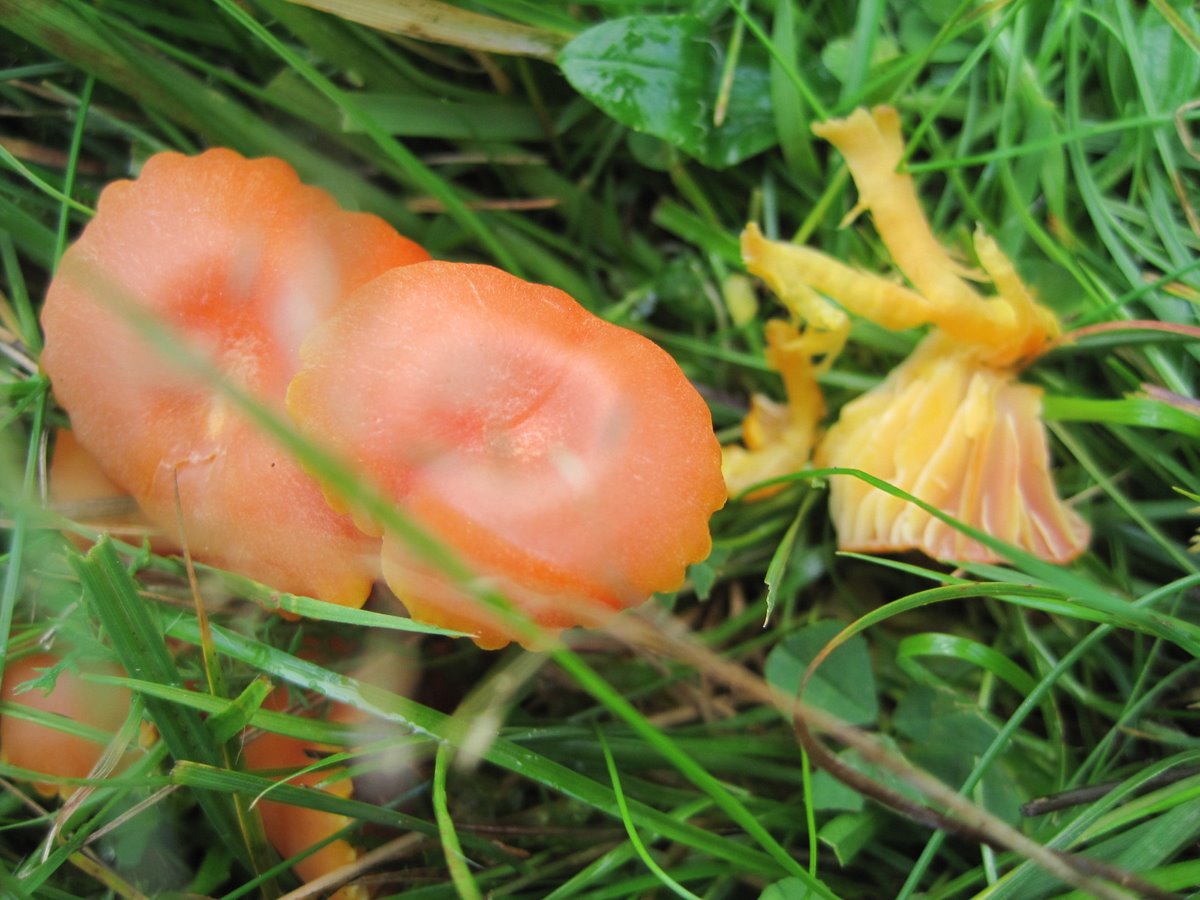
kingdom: Fungi
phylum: Basidiomycota
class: Agaricomycetes
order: Agaricales
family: Hygrophoraceae
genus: Hygrocybe
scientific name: Hygrocybe reidii
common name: honning-vokshat
